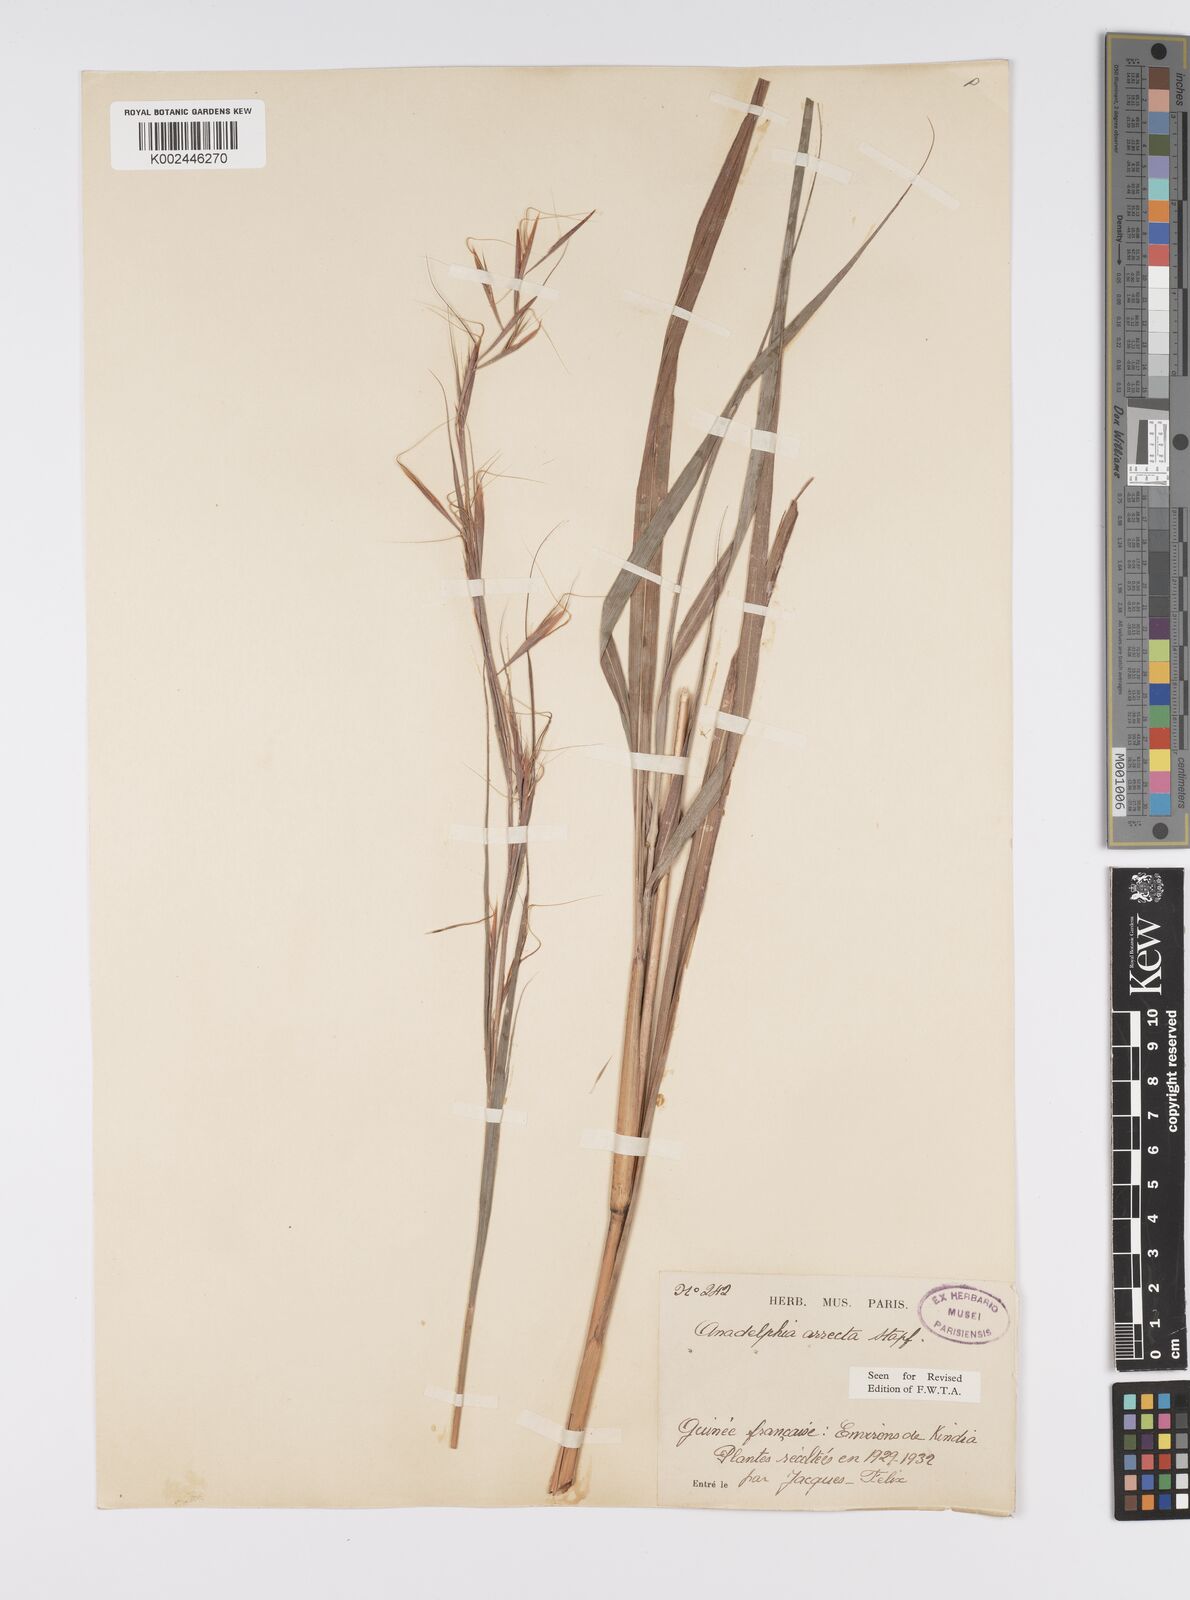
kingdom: Plantae
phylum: Tracheophyta
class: Liliopsida
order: Poales
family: Poaceae
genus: Anadelphia
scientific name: Anadelphia afzeliana
